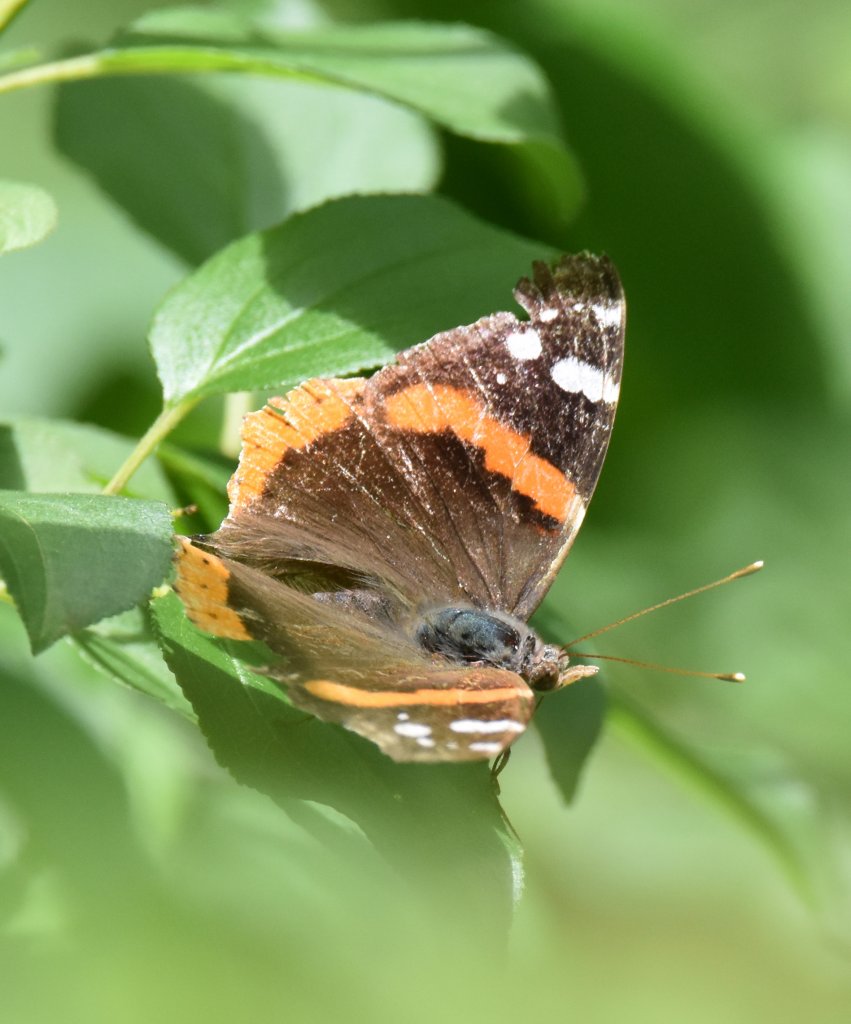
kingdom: Animalia
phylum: Arthropoda
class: Insecta
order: Lepidoptera
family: Nymphalidae
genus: Vanessa
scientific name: Vanessa atalanta
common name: Red Admiral
